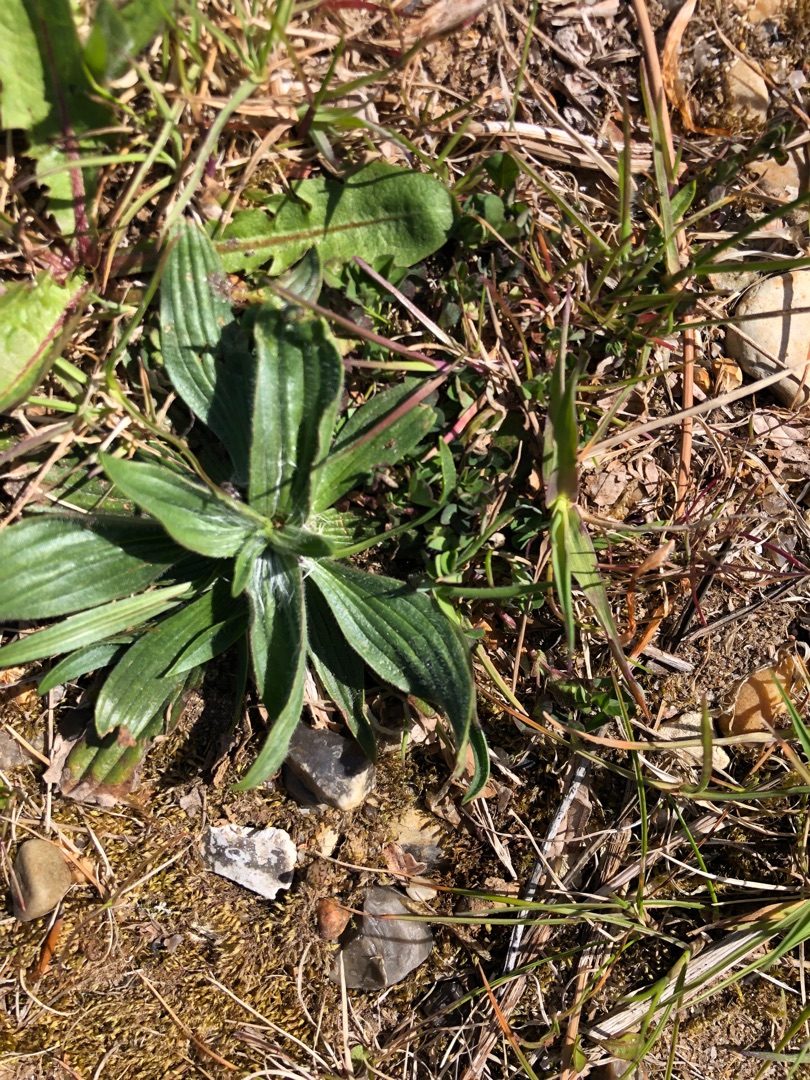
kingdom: Plantae
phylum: Tracheophyta
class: Magnoliopsida
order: Lamiales
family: Plantaginaceae
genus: Plantago
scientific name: Plantago lanceolata
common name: Lancet-vejbred
